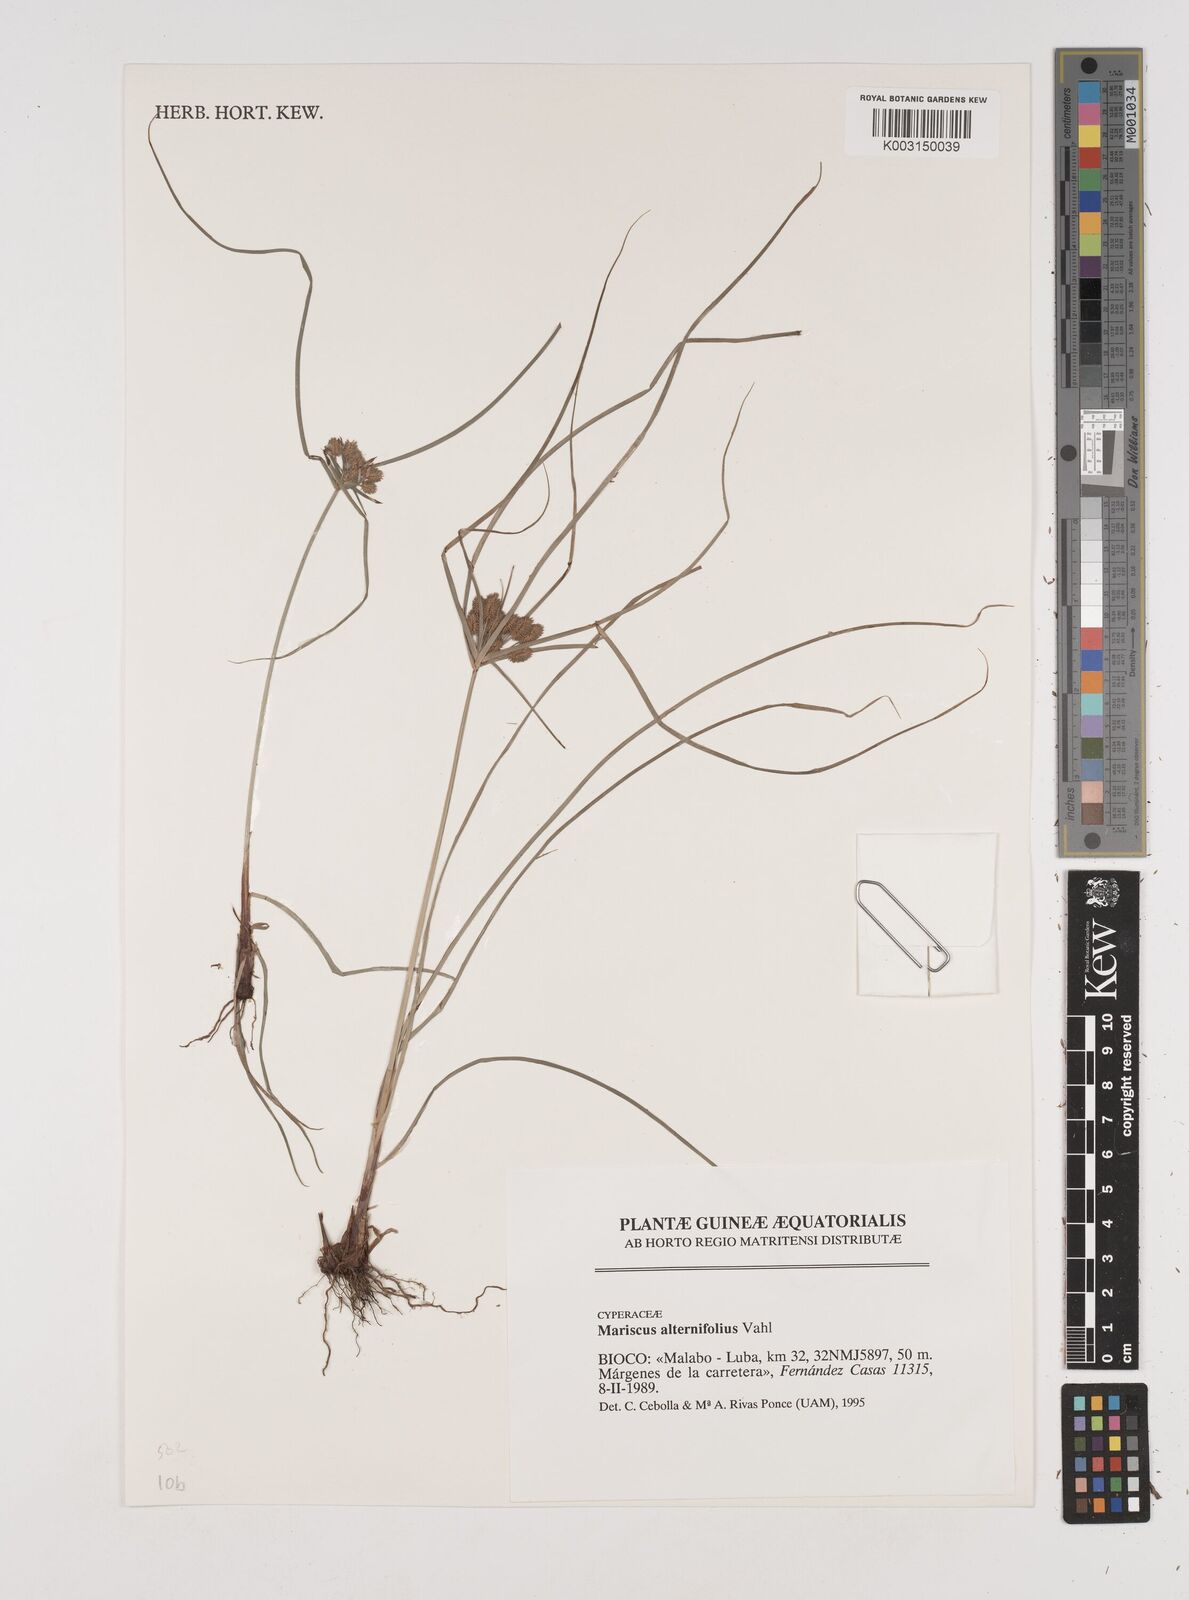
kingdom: Plantae
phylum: Tracheophyta
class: Liliopsida
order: Poales
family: Cyperaceae
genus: Cyperus
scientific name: Cyperus cyperoides
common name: Pacific island flat sedge
